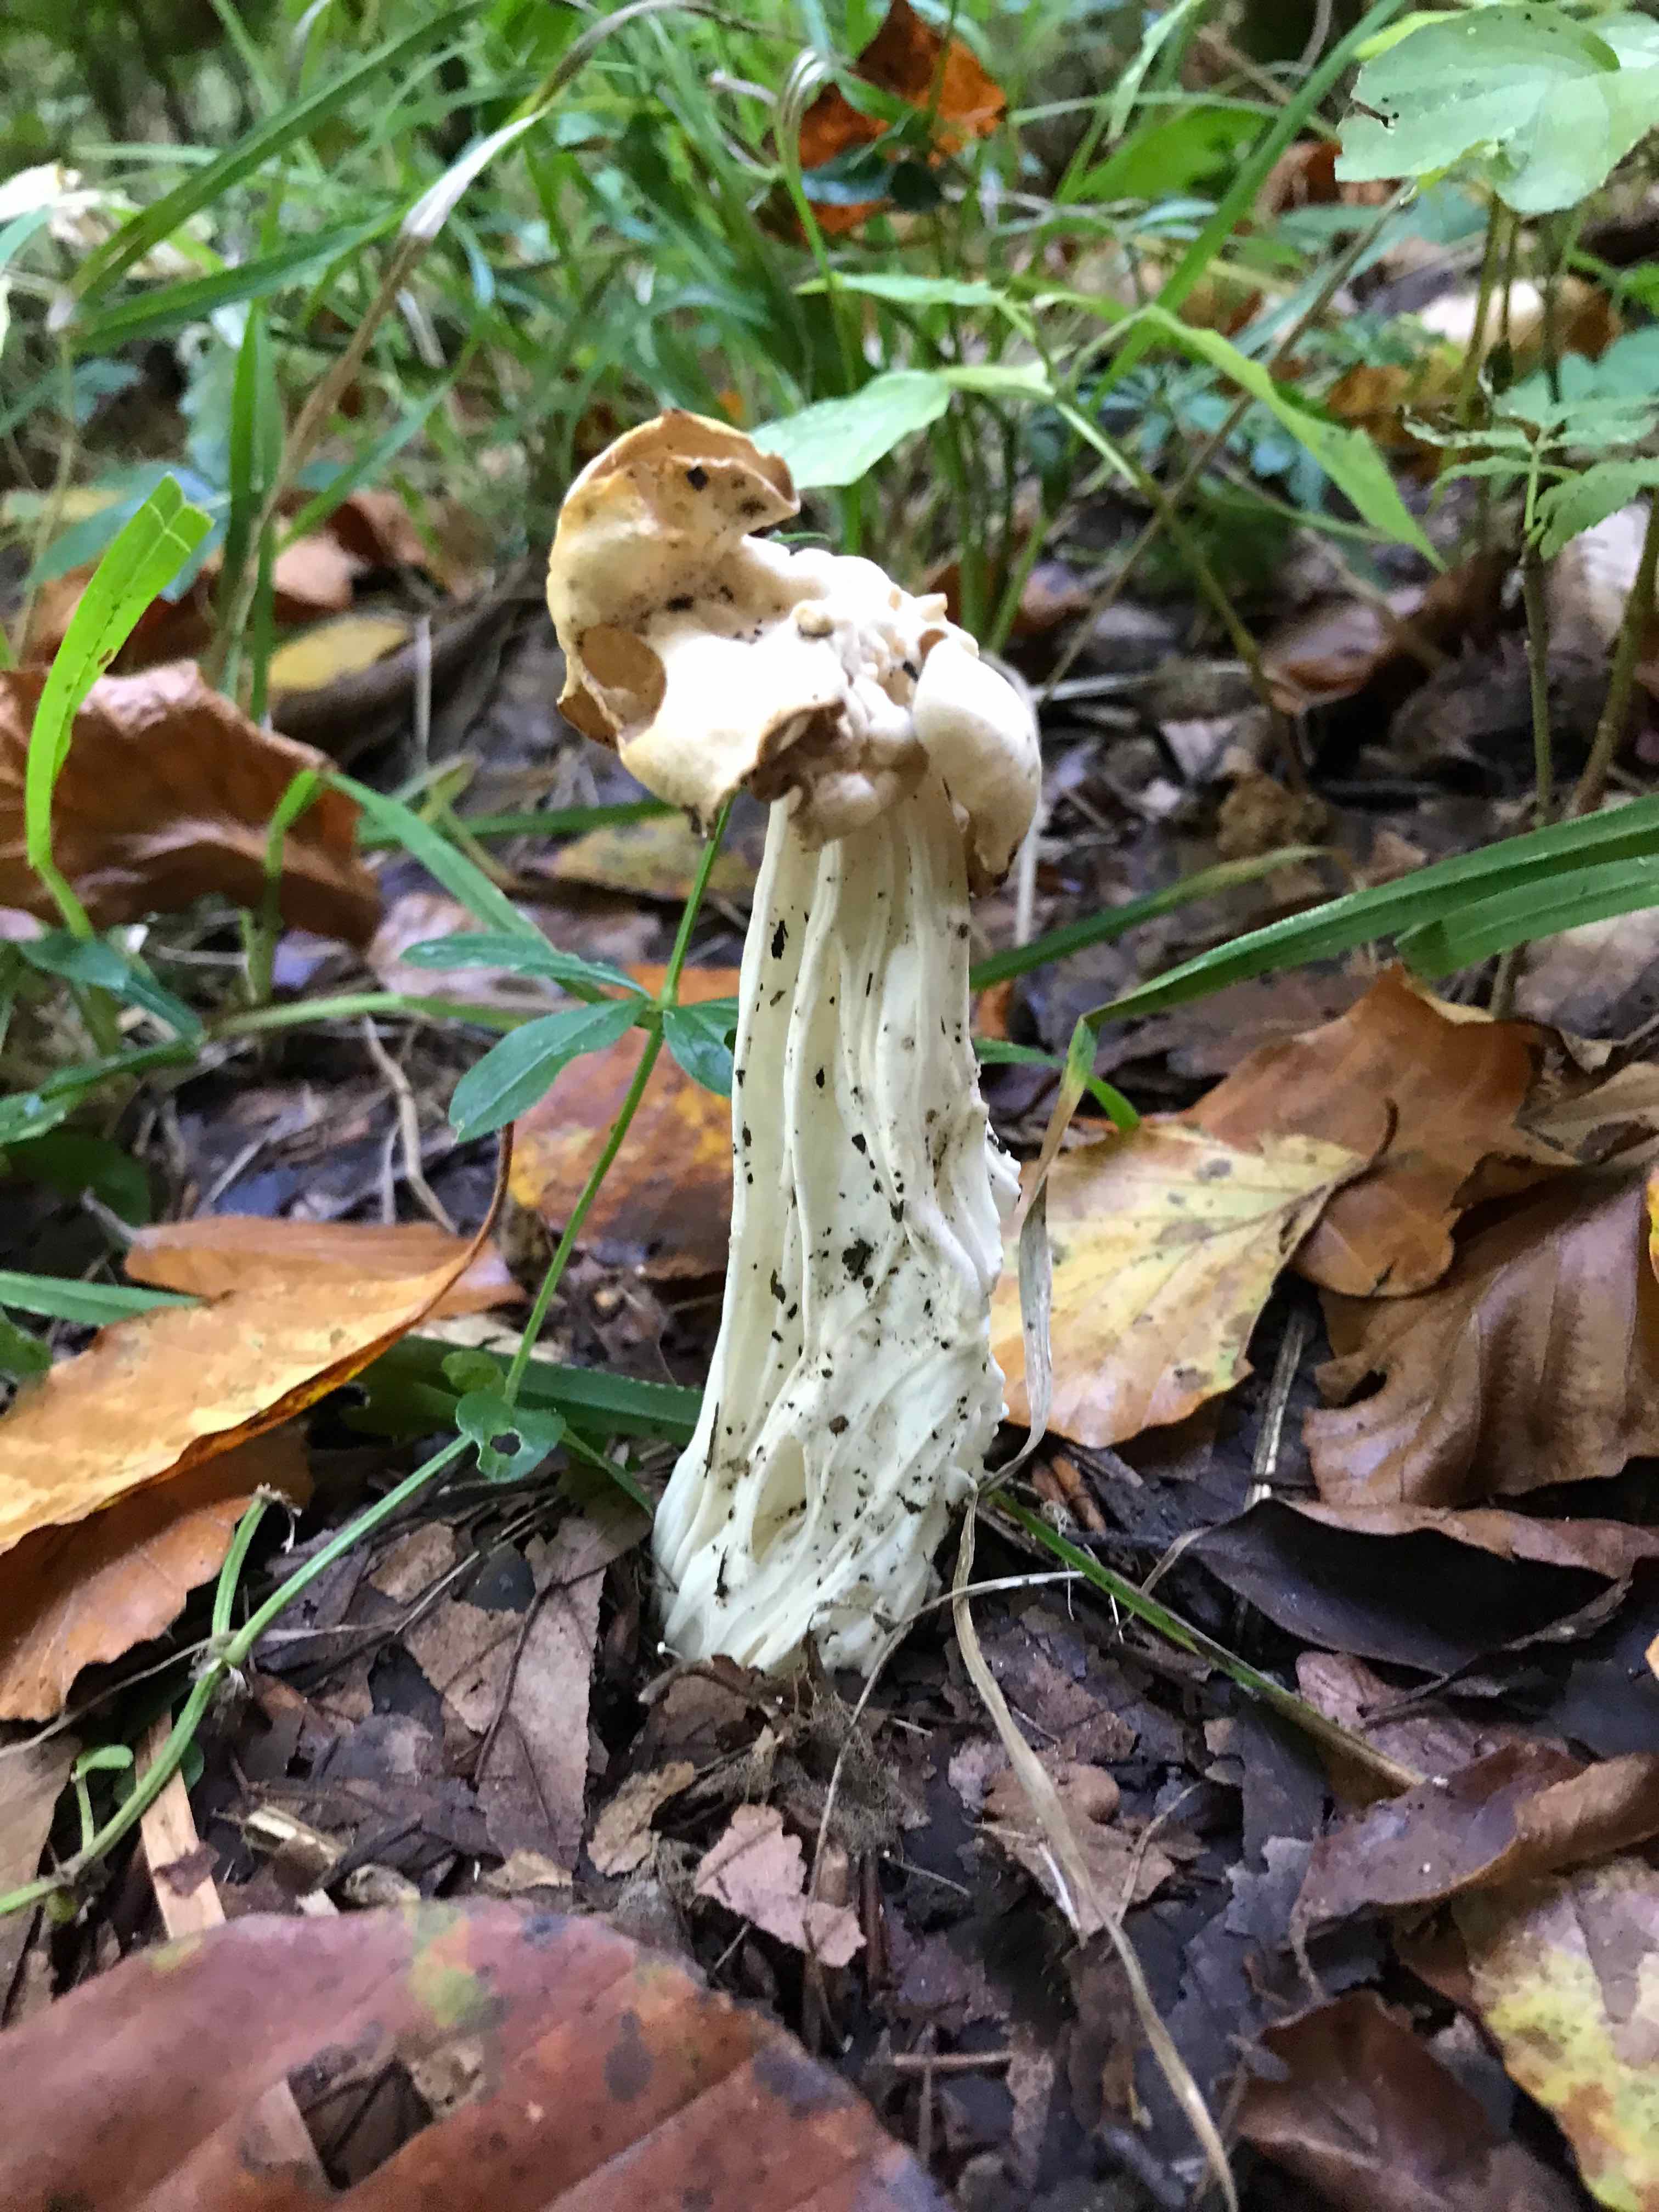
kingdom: Fungi
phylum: Ascomycota
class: Pezizomycetes
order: Pezizales
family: Helvellaceae
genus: Helvella
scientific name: Helvella crispa
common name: kruset foldhat
